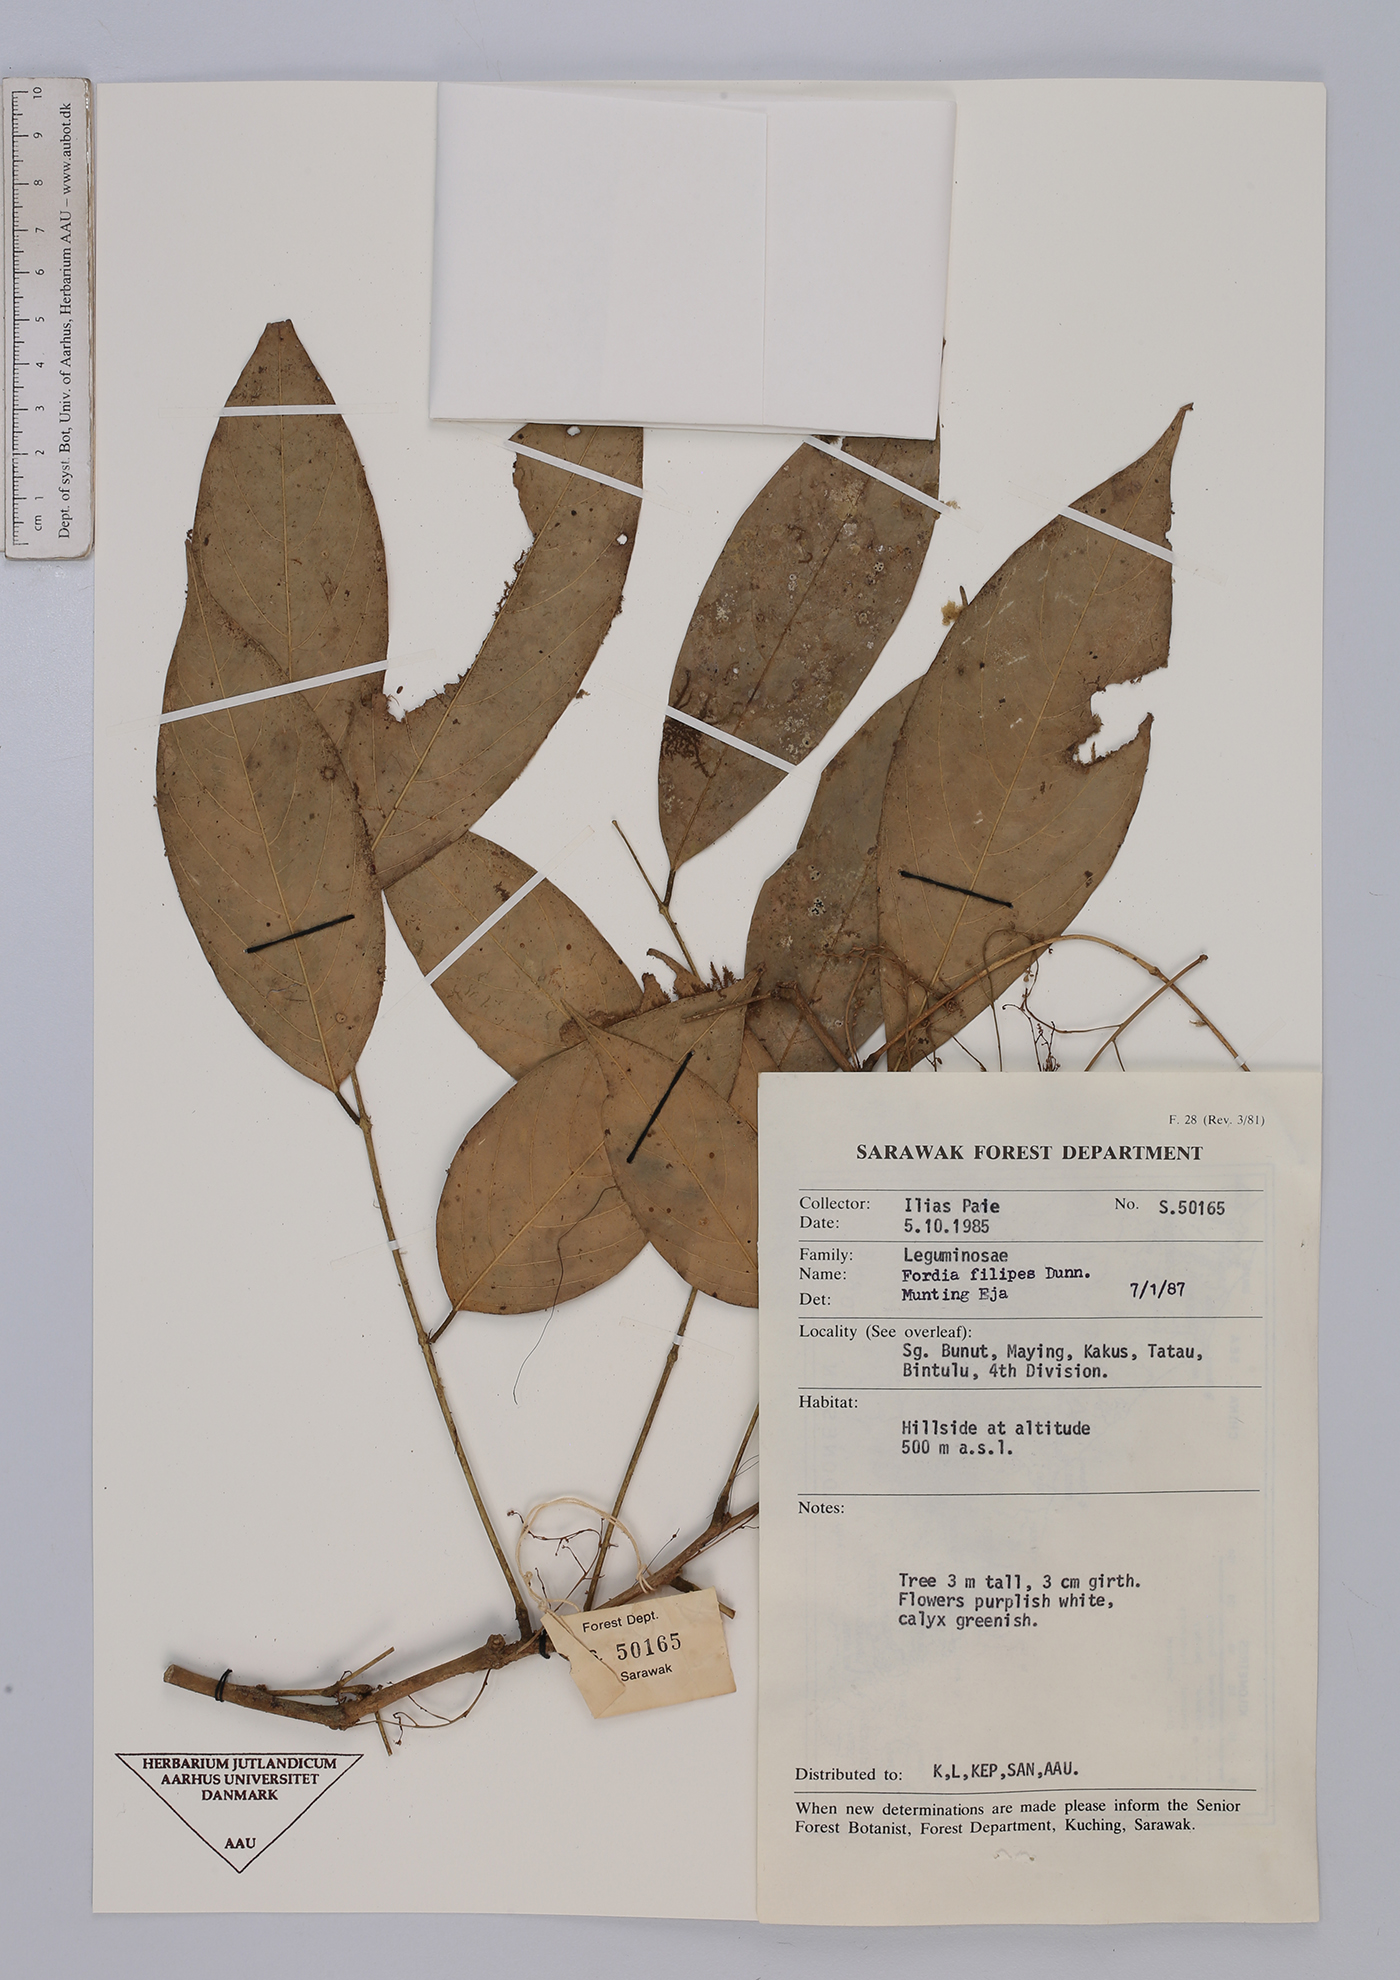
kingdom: Plantae
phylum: Tracheophyta
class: Magnoliopsida
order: Fabales
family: Fabaceae
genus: Fordia
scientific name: Fordia splendidissima
